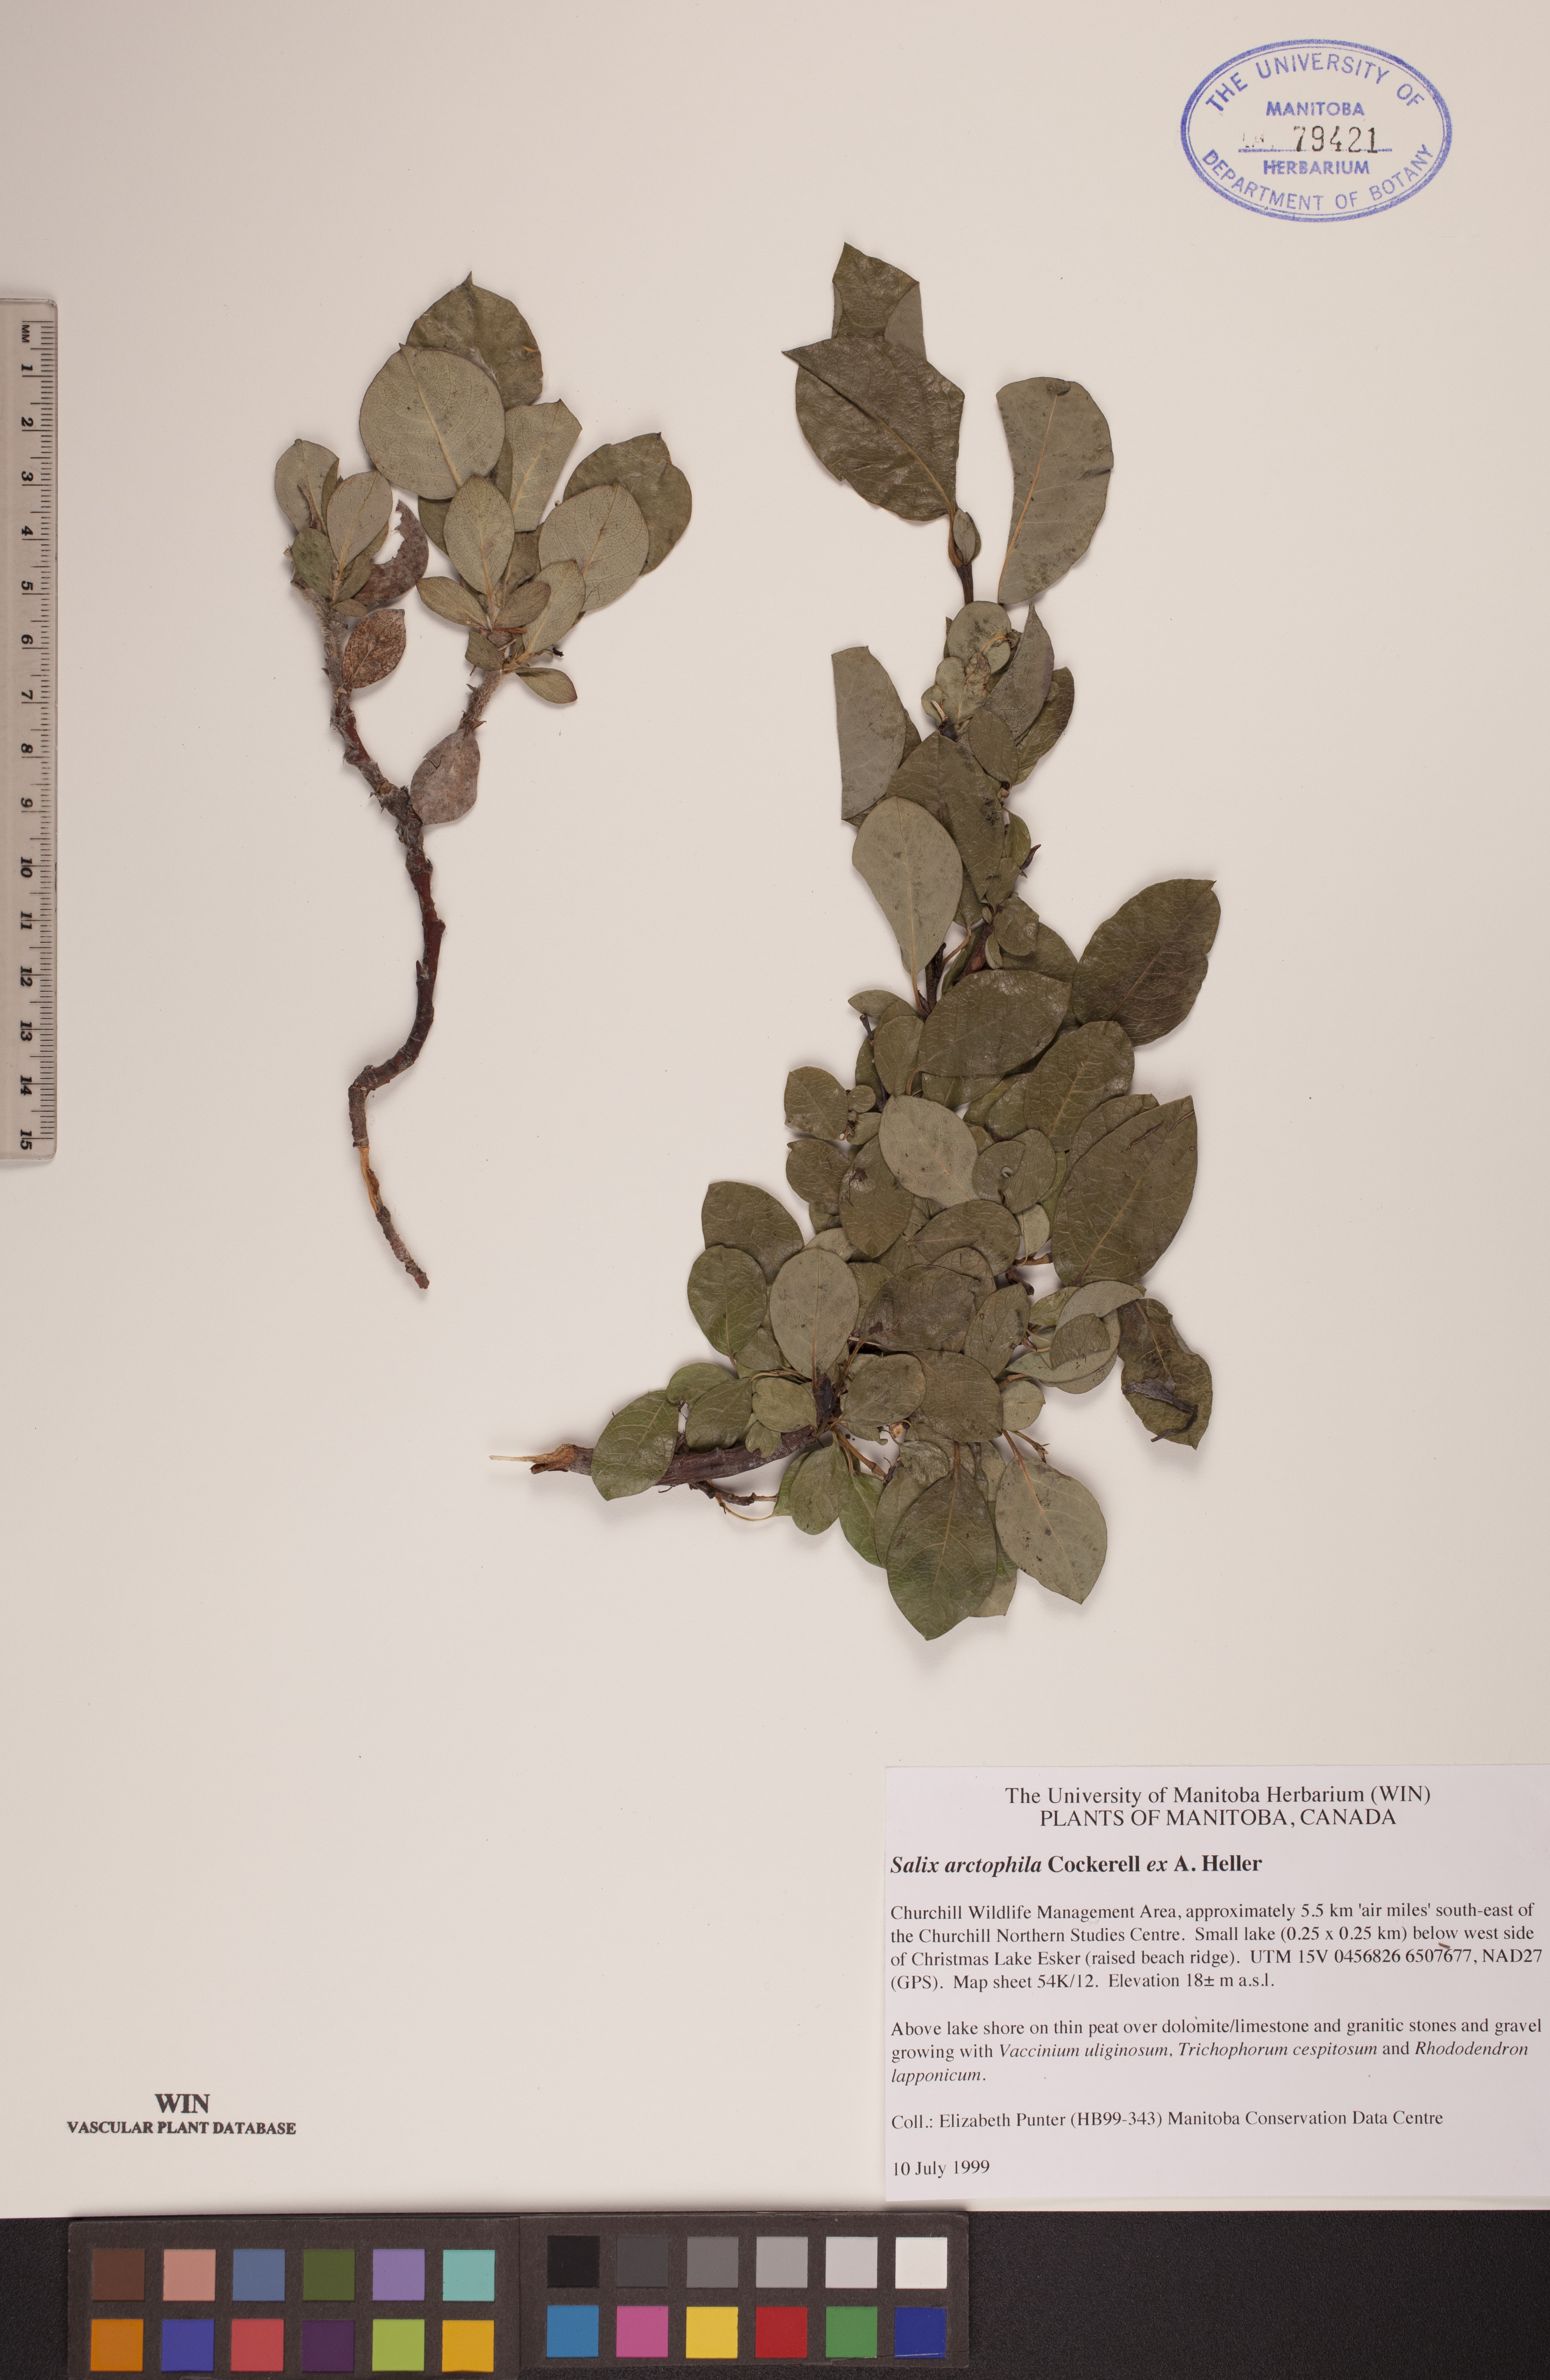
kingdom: Plantae
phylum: Tracheophyta
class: Magnoliopsida
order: Malpighiales
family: Salicaceae
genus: Salix
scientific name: Salix arctophila
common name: Greenland willow
